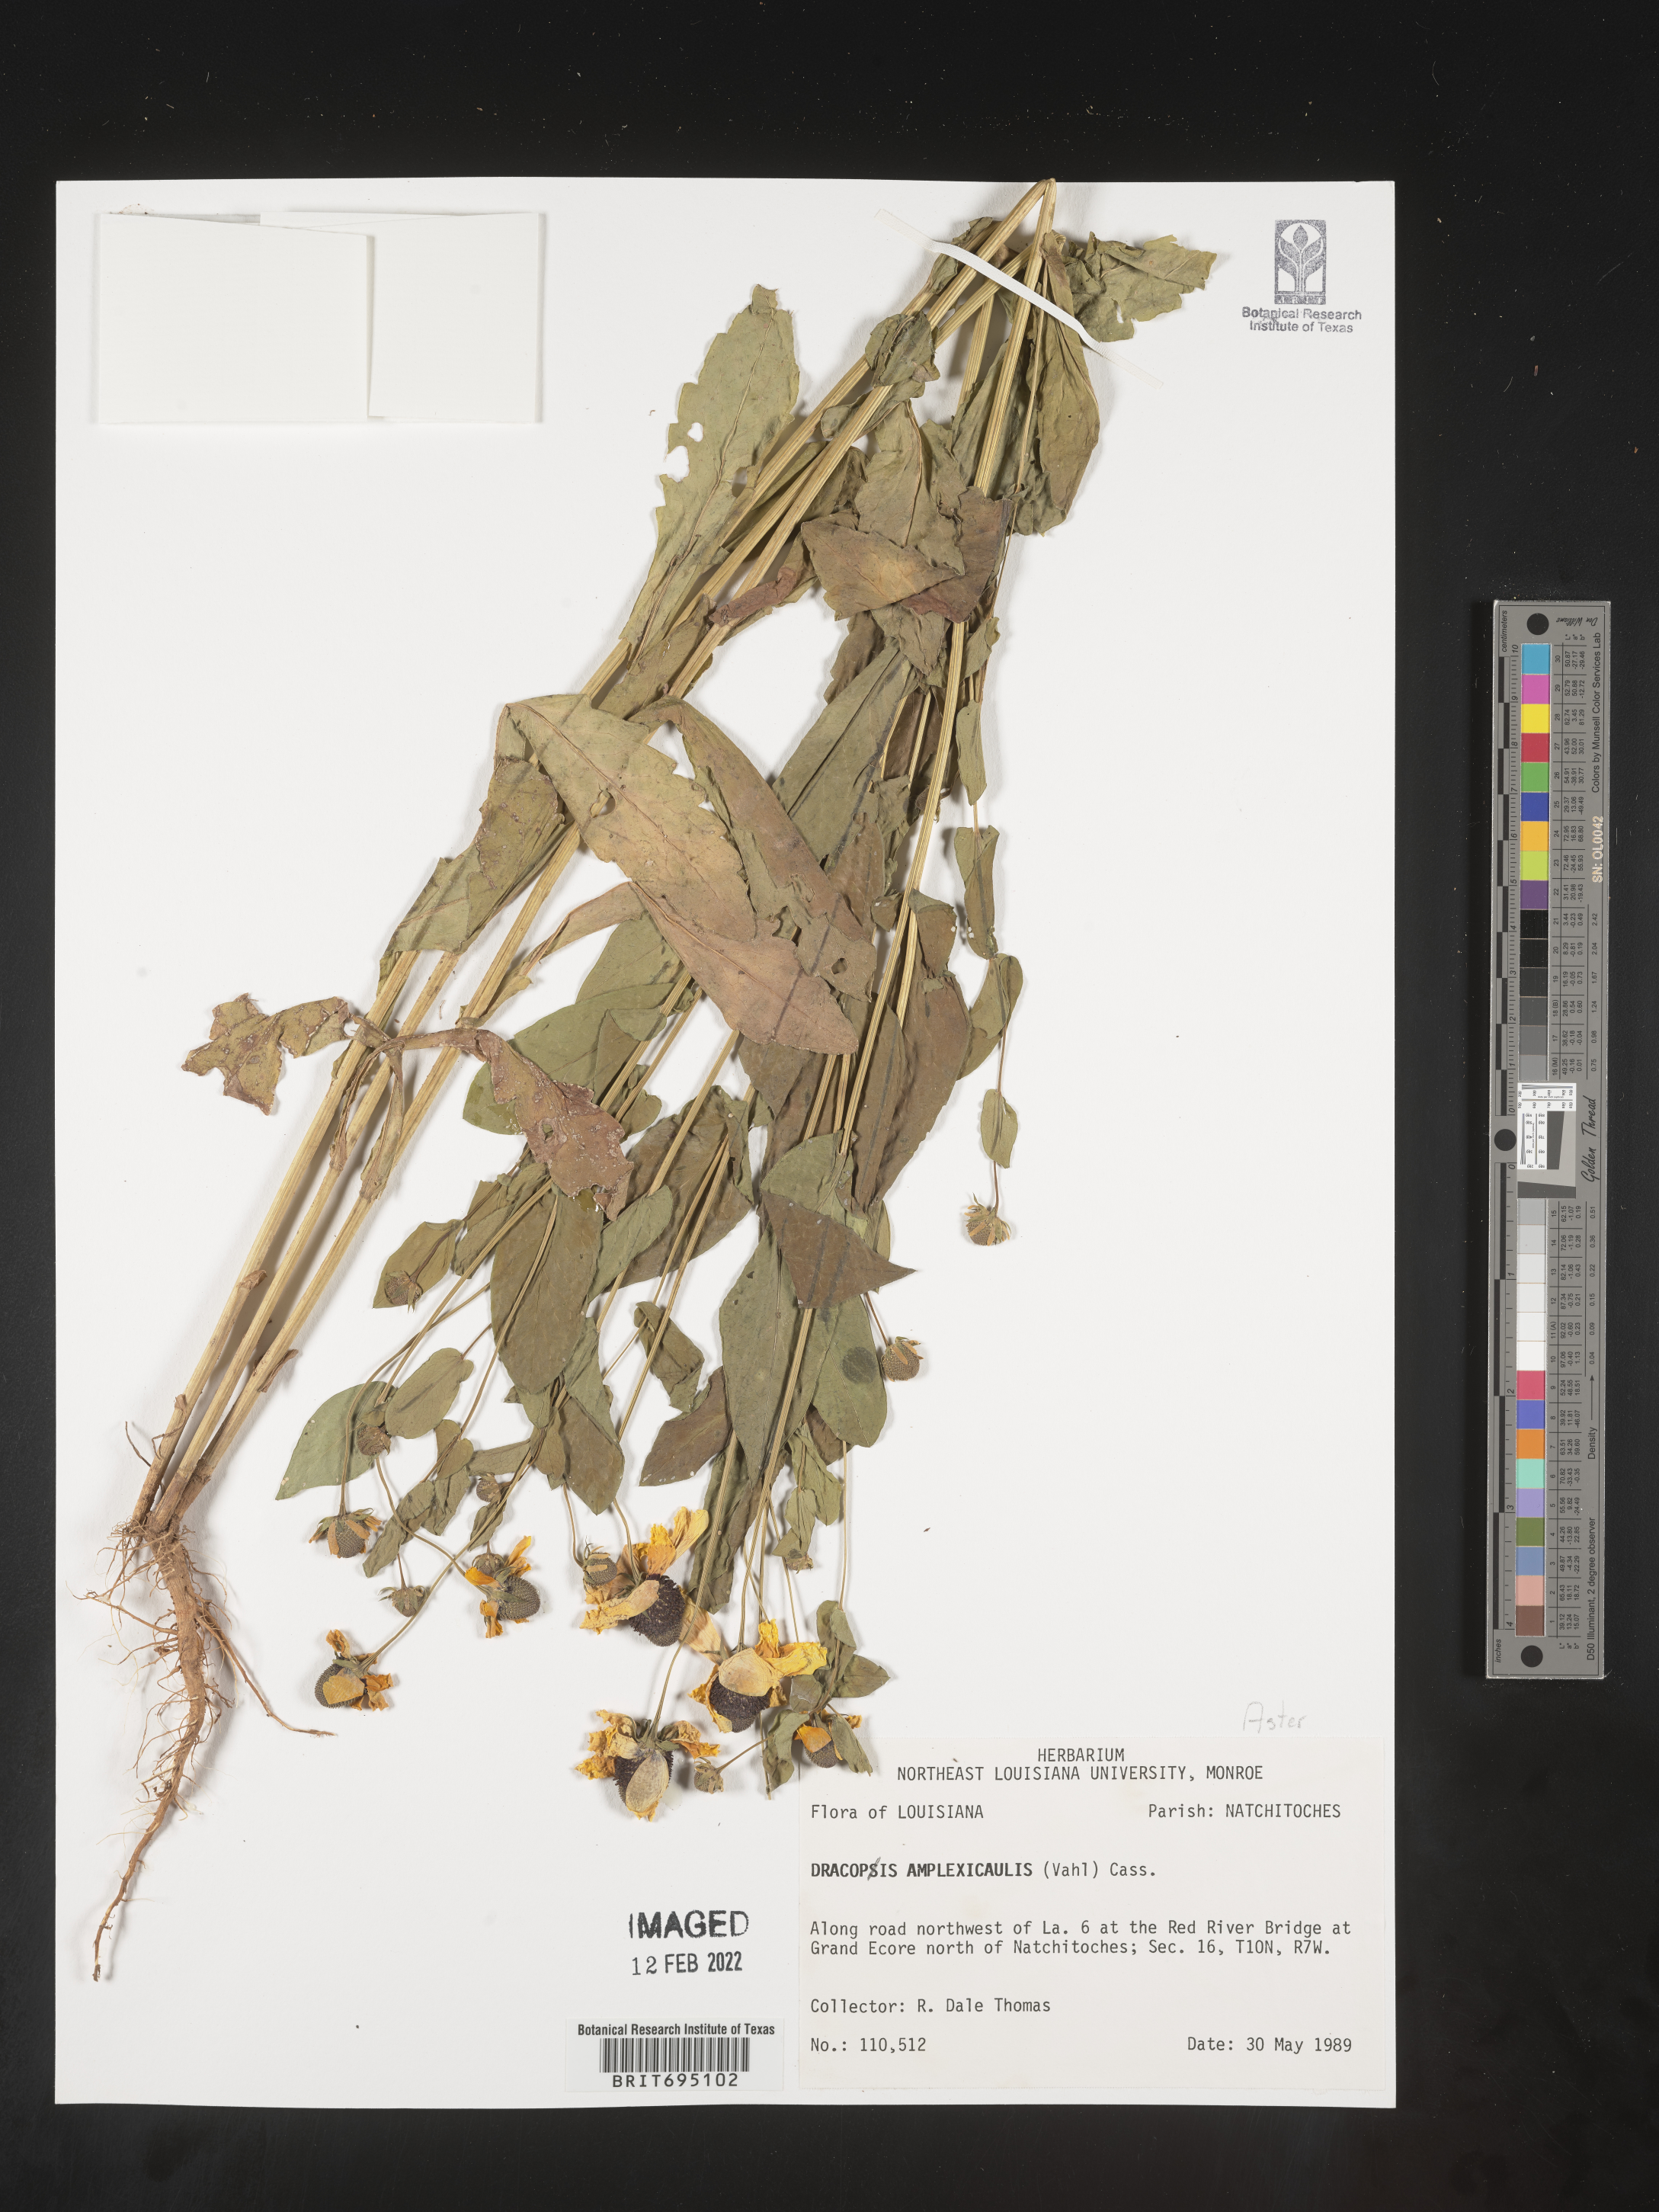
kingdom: Plantae
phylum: Tracheophyta
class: Magnoliopsida
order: Asterales
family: Asteraceae
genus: Rudbeckia
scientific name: Rudbeckia amplexicaulis
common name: Clasping-leaf coneflower
